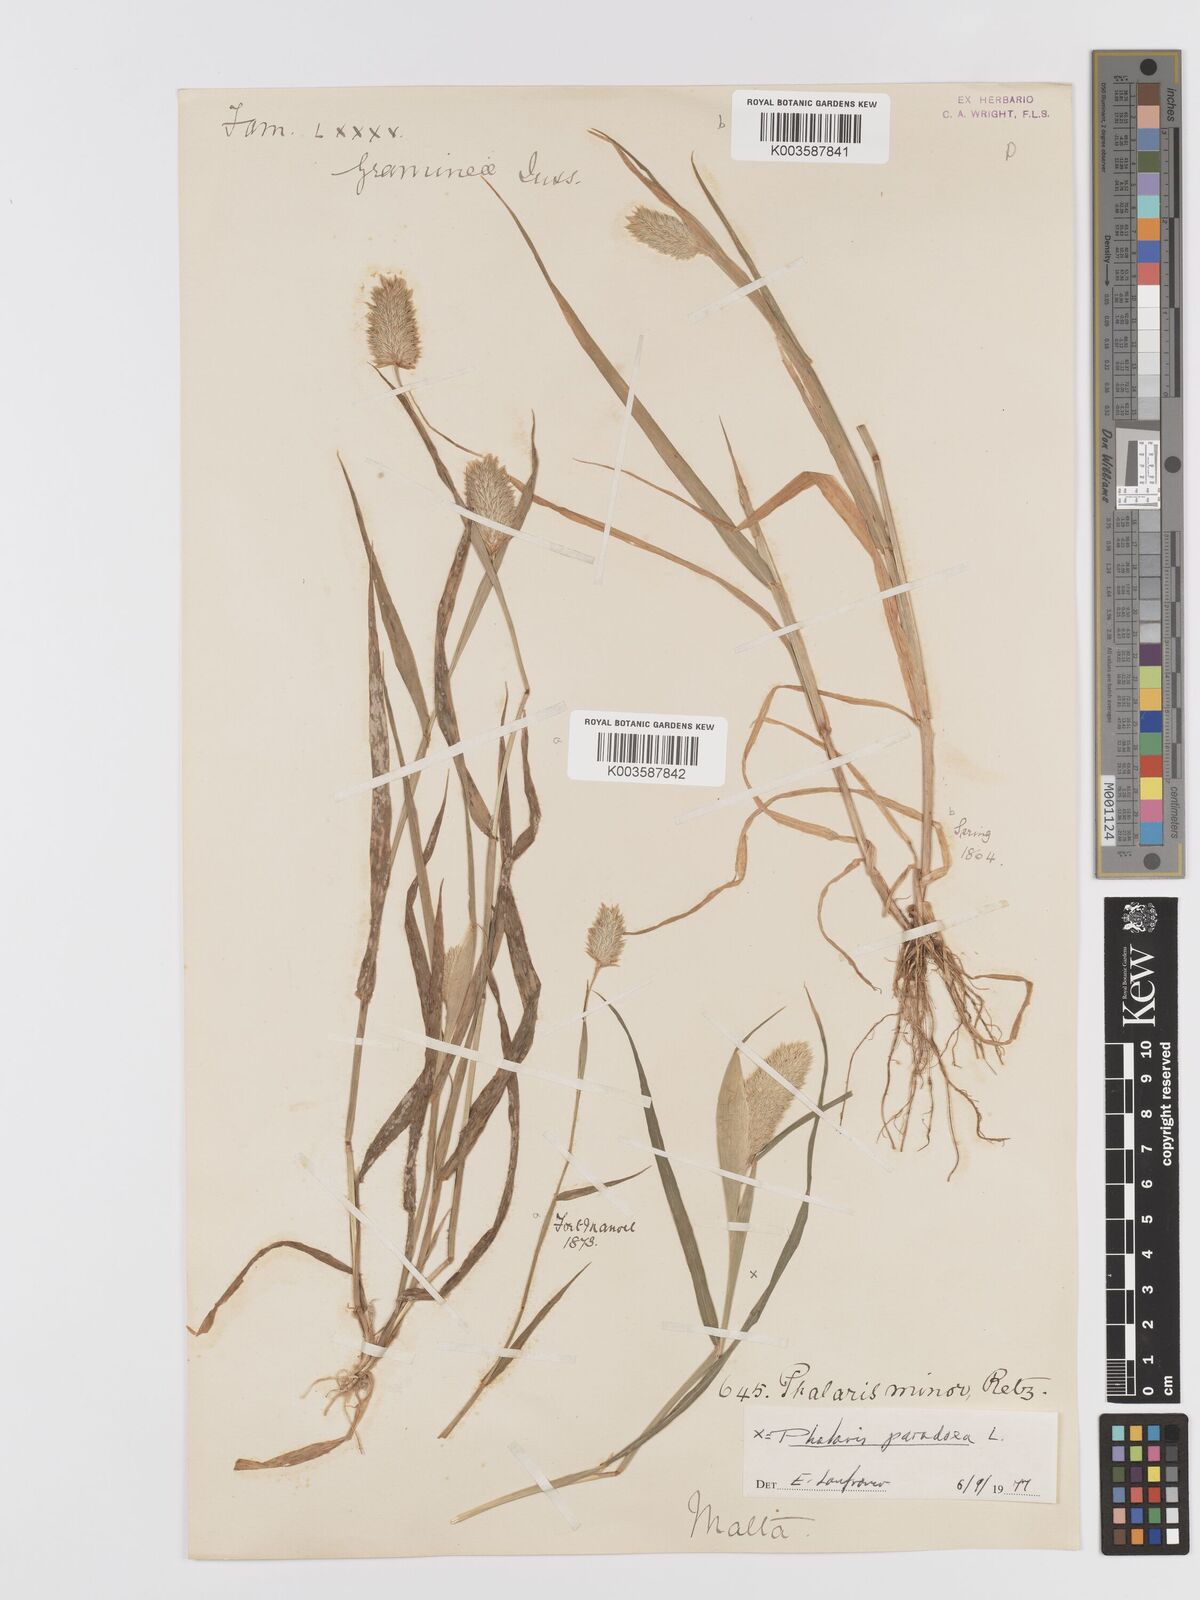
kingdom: Plantae
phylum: Tracheophyta
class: Liliopsida
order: Poales
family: Poaceae
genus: Phalaris
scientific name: Phalaris minor
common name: Littleseed canarygrass
